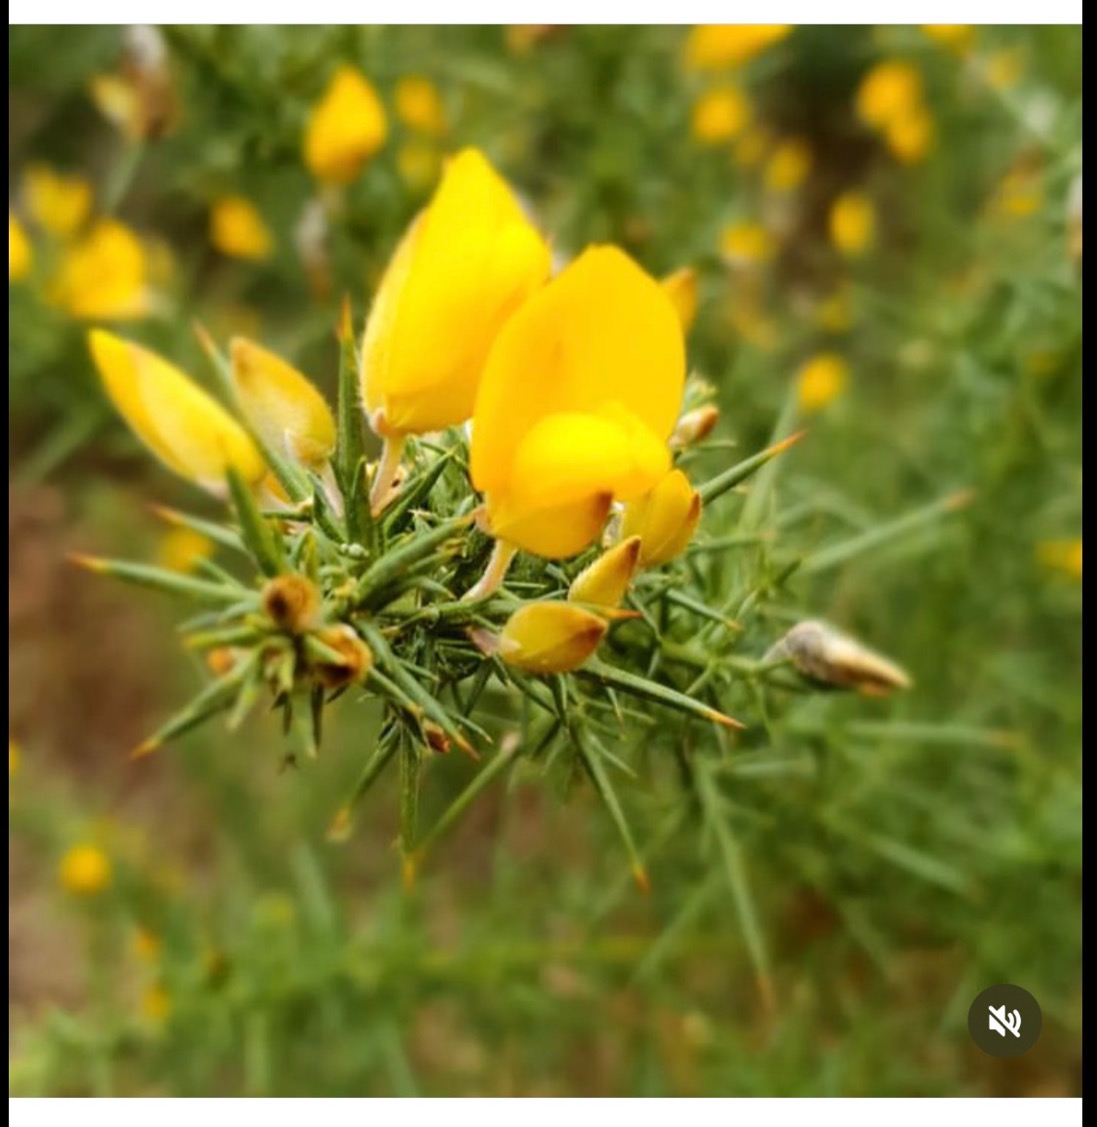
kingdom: Plantae
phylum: Tracheophyta
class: Magnoliopsida
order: Fabales
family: Fabaceae
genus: Ulex
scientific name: Ulex europaeus
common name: Tornblad
